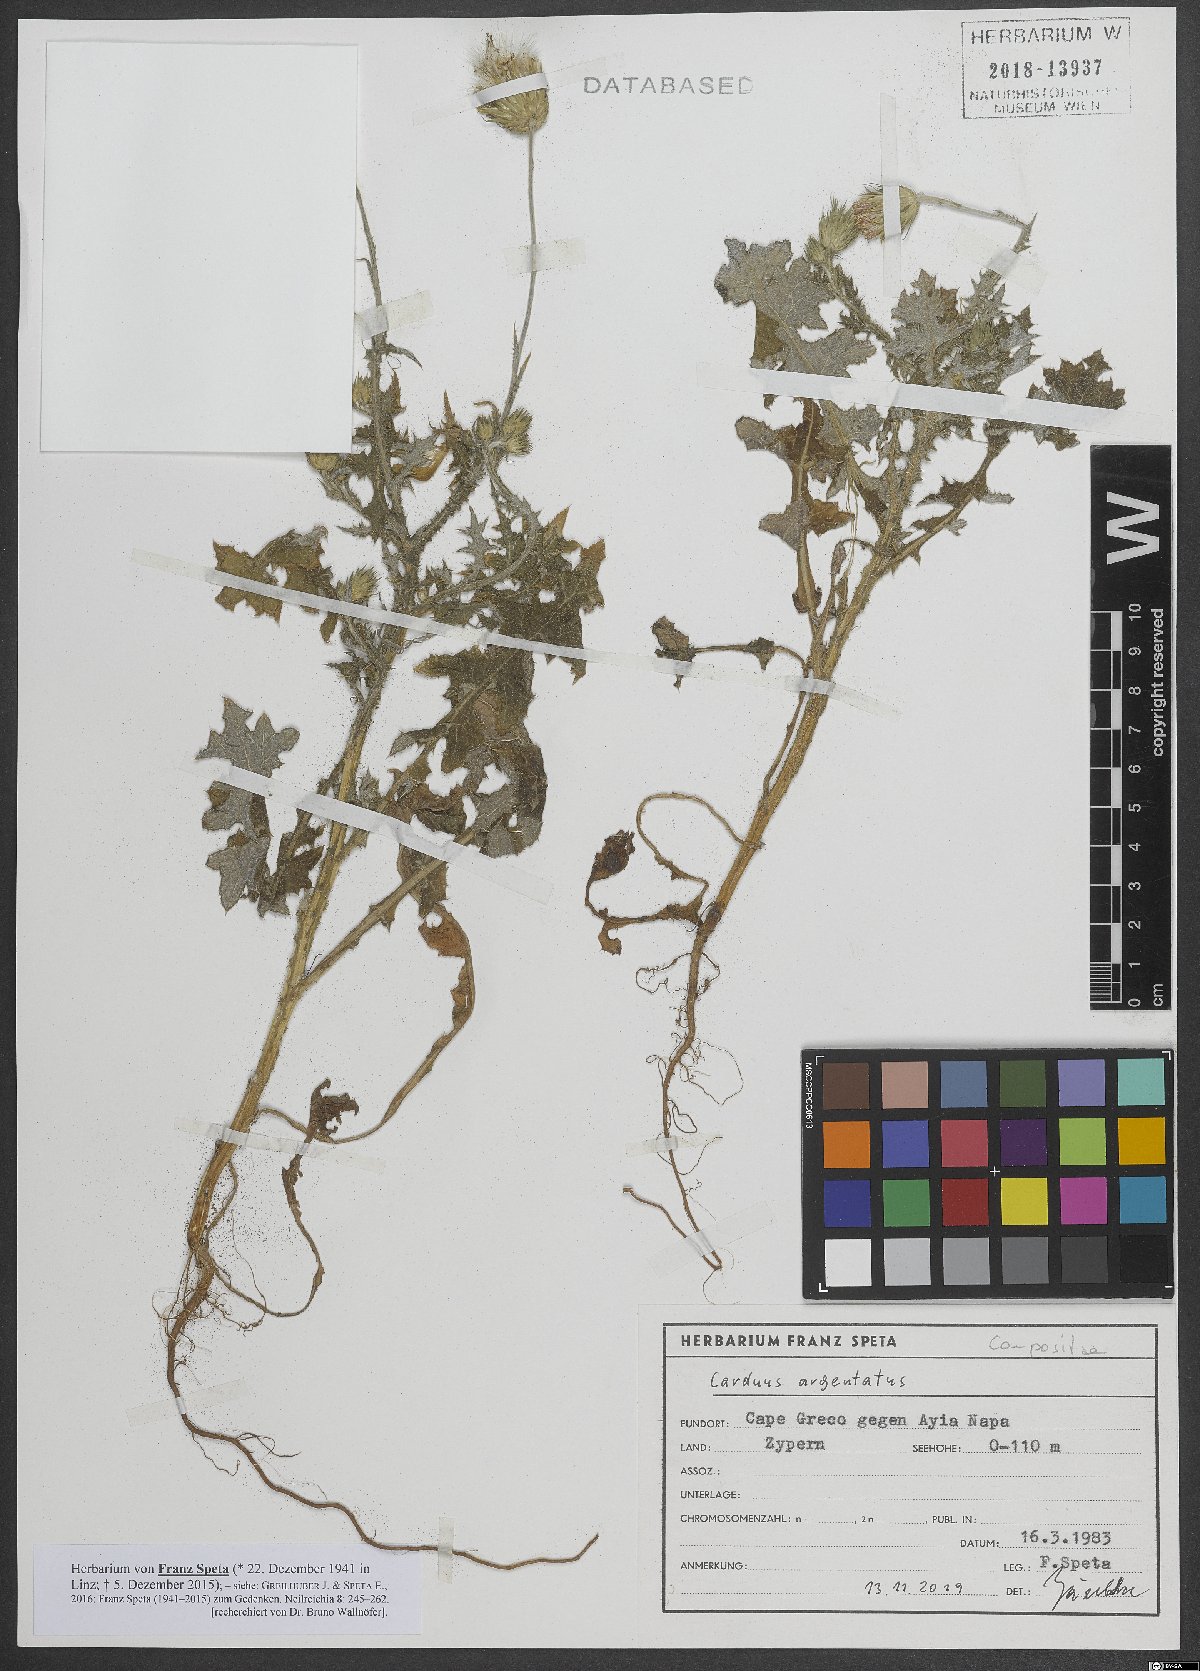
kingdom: Plantae
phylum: Tracheophyta
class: Magnoliopsida
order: Asterales
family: Asteraceae
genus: Carduus
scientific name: Carduus argentatus
